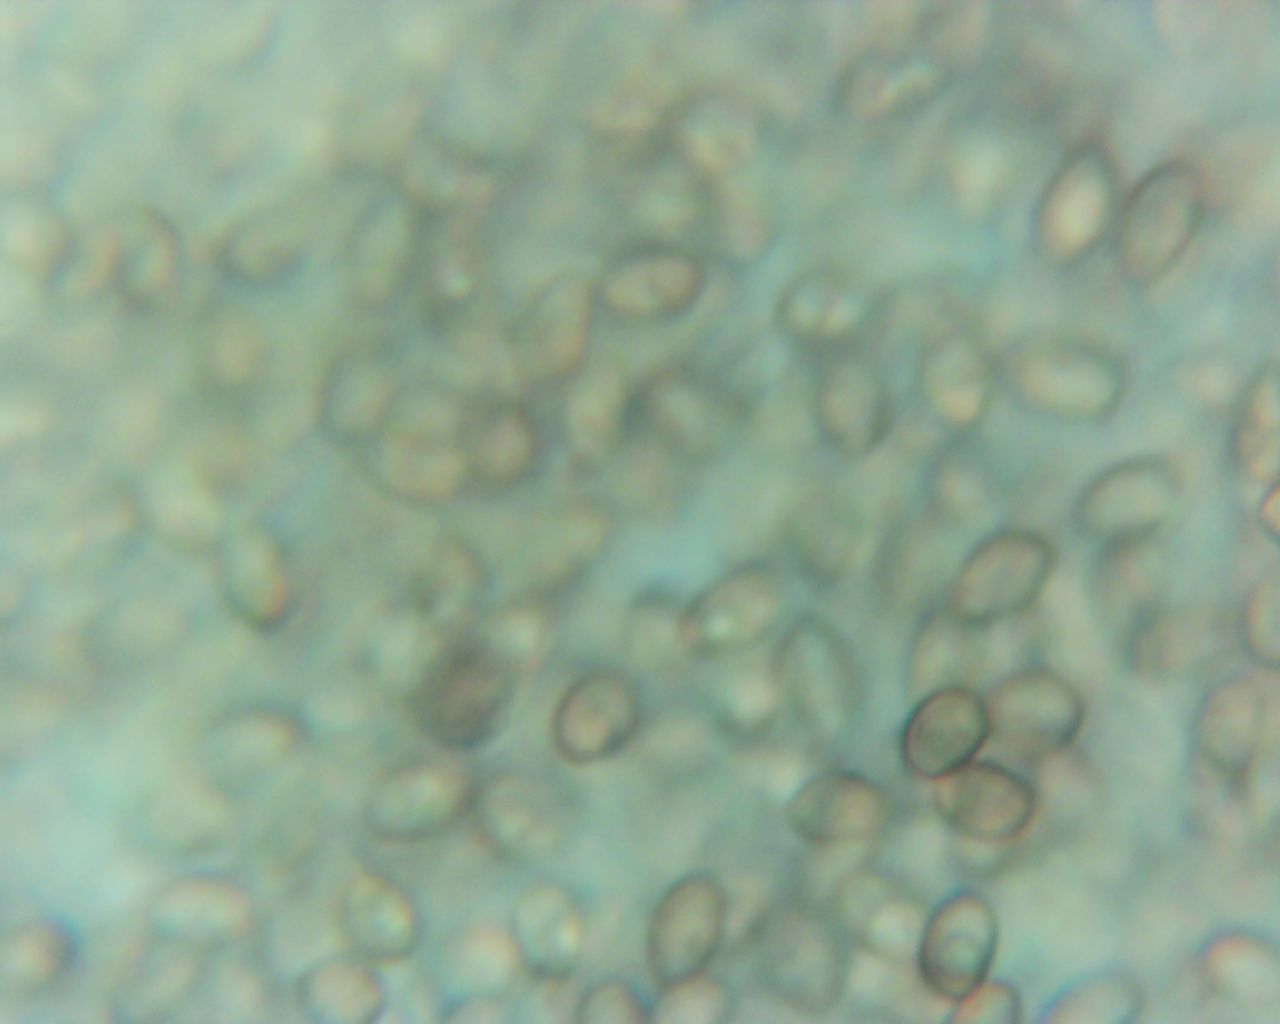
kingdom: Fungi
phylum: Basidiomycota
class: Agaricomycetes
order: Agaricales
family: Crepidotaceae
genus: Crepidotus
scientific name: Crepidotus mollis
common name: blød muslingesvamp
